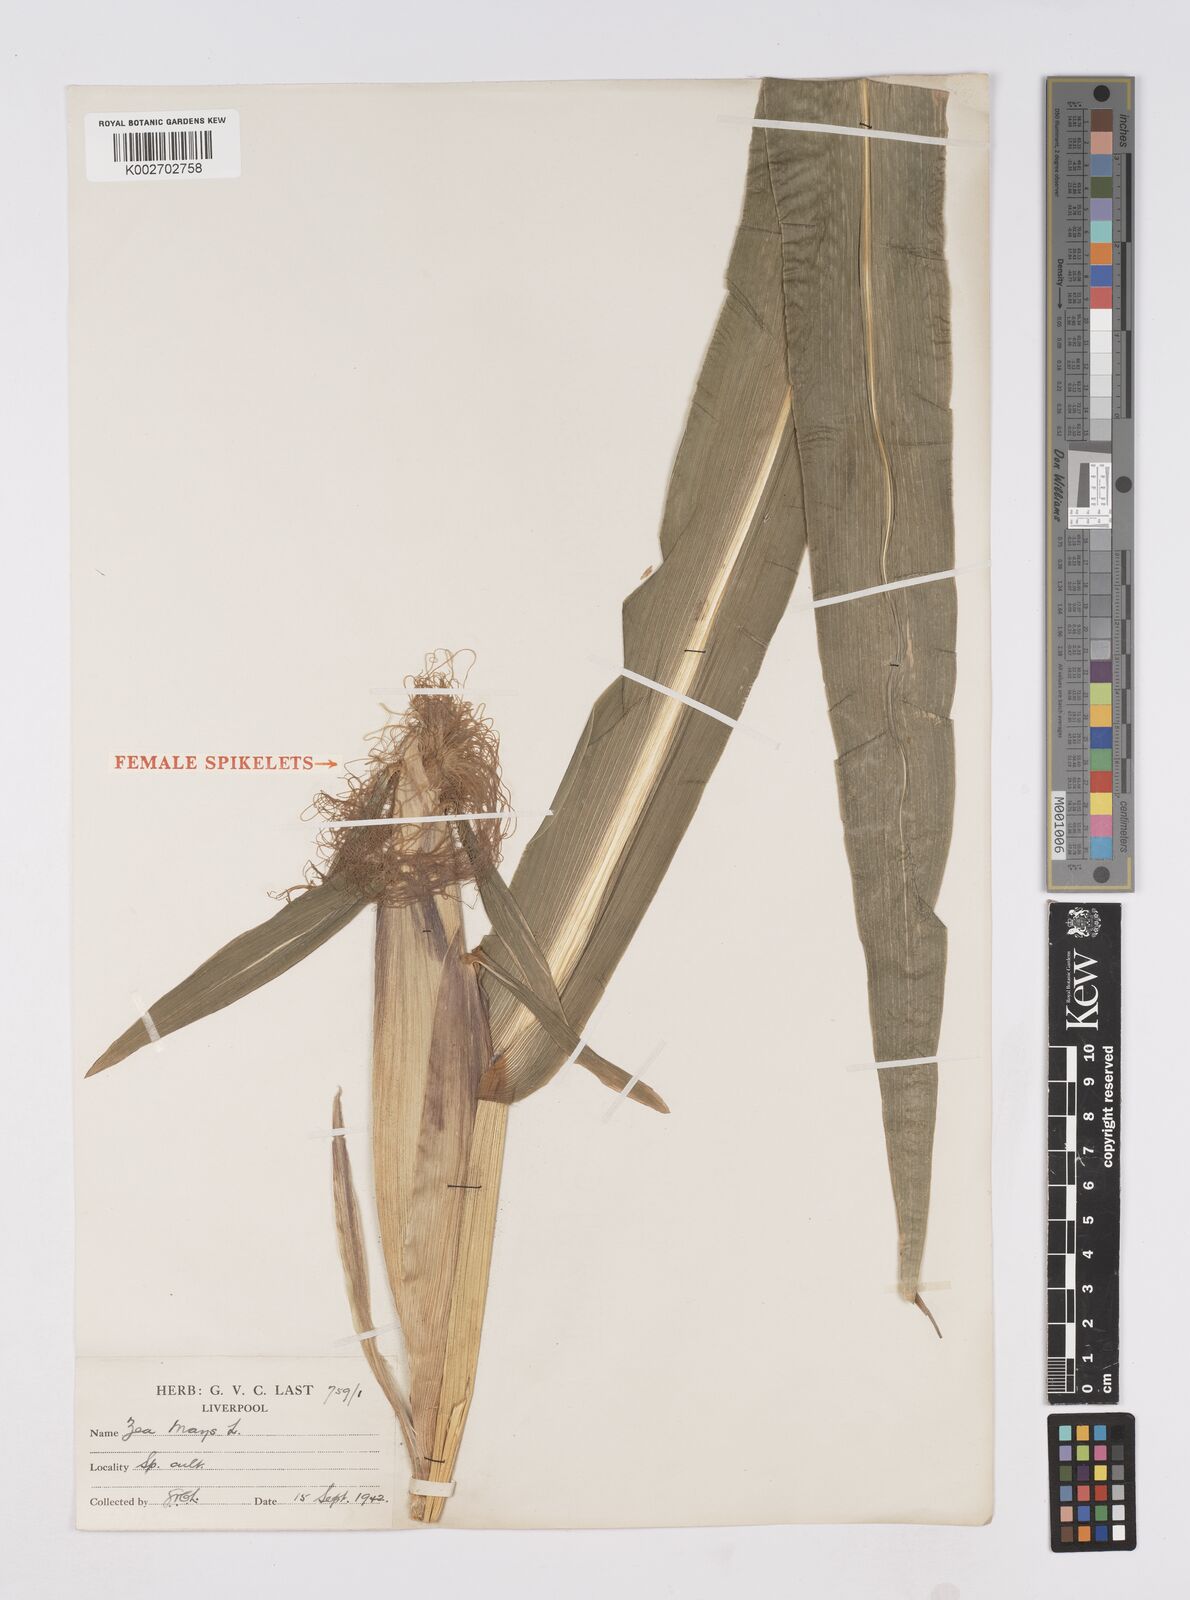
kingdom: Plantae
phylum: Tracheophyta
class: Liliopsida
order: Poales
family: Poaceae
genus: Zea
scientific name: Zea mays
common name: Maize
